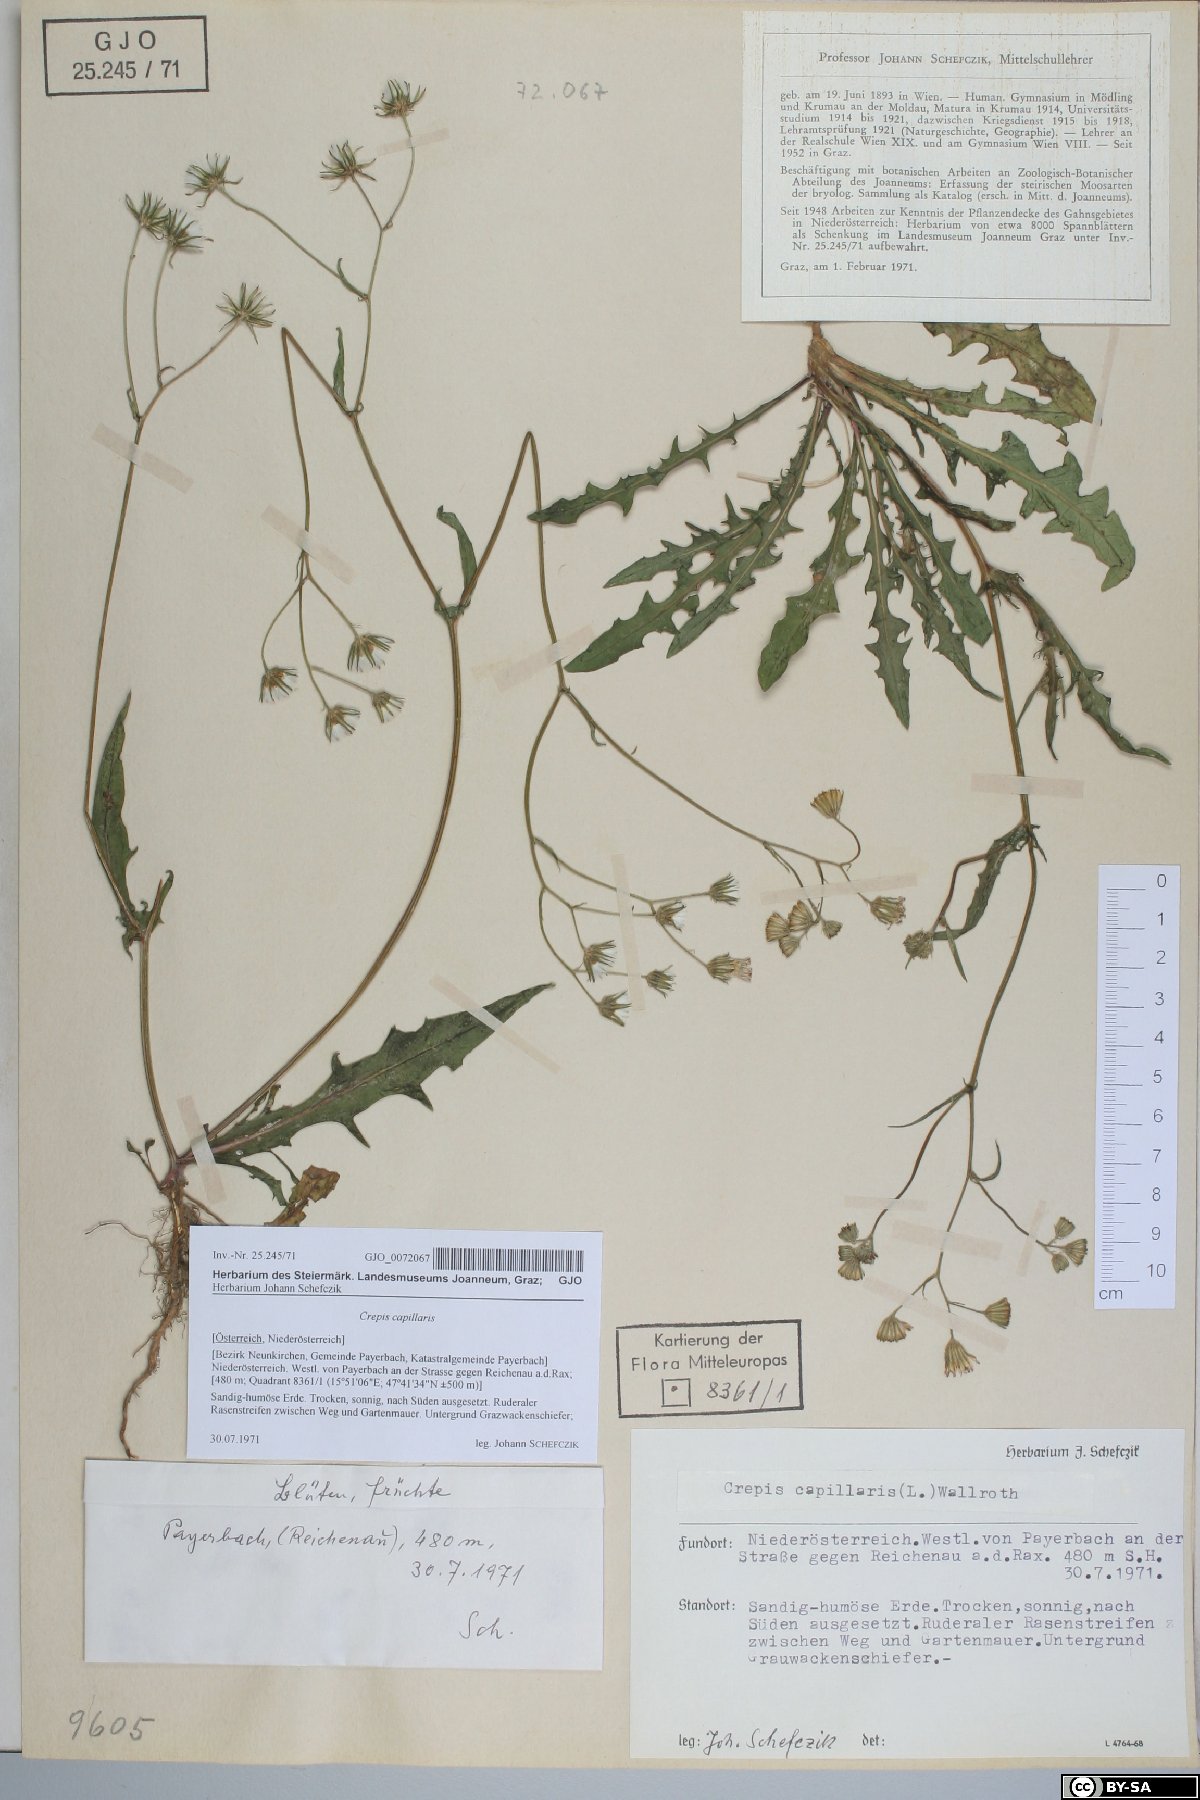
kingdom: Plantae
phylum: Tracheophyta
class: Magnoliopsida
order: Asterales
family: Asteraceae
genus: Crepis
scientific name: Crepis capillaris
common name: Smooth hawksbeard
